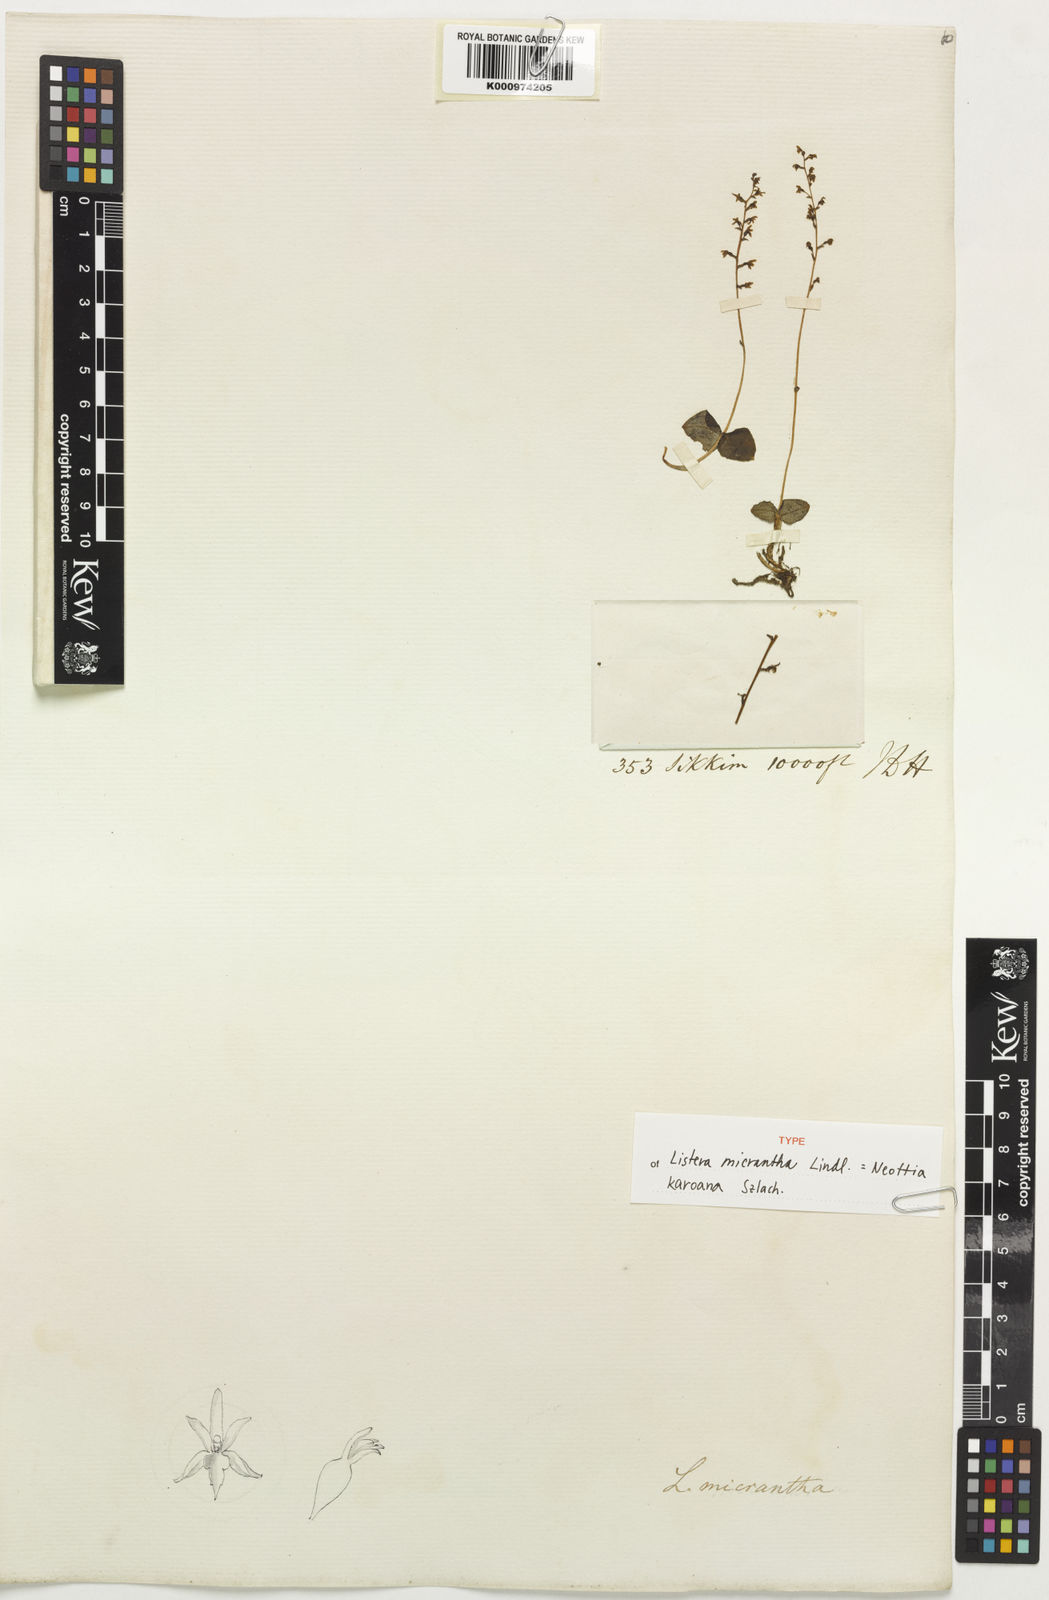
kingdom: Plantae
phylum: Tracheophyta
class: Liliopsida
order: Asparagales
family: Orchidaceae
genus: Neottia
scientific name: Neottia karoana
